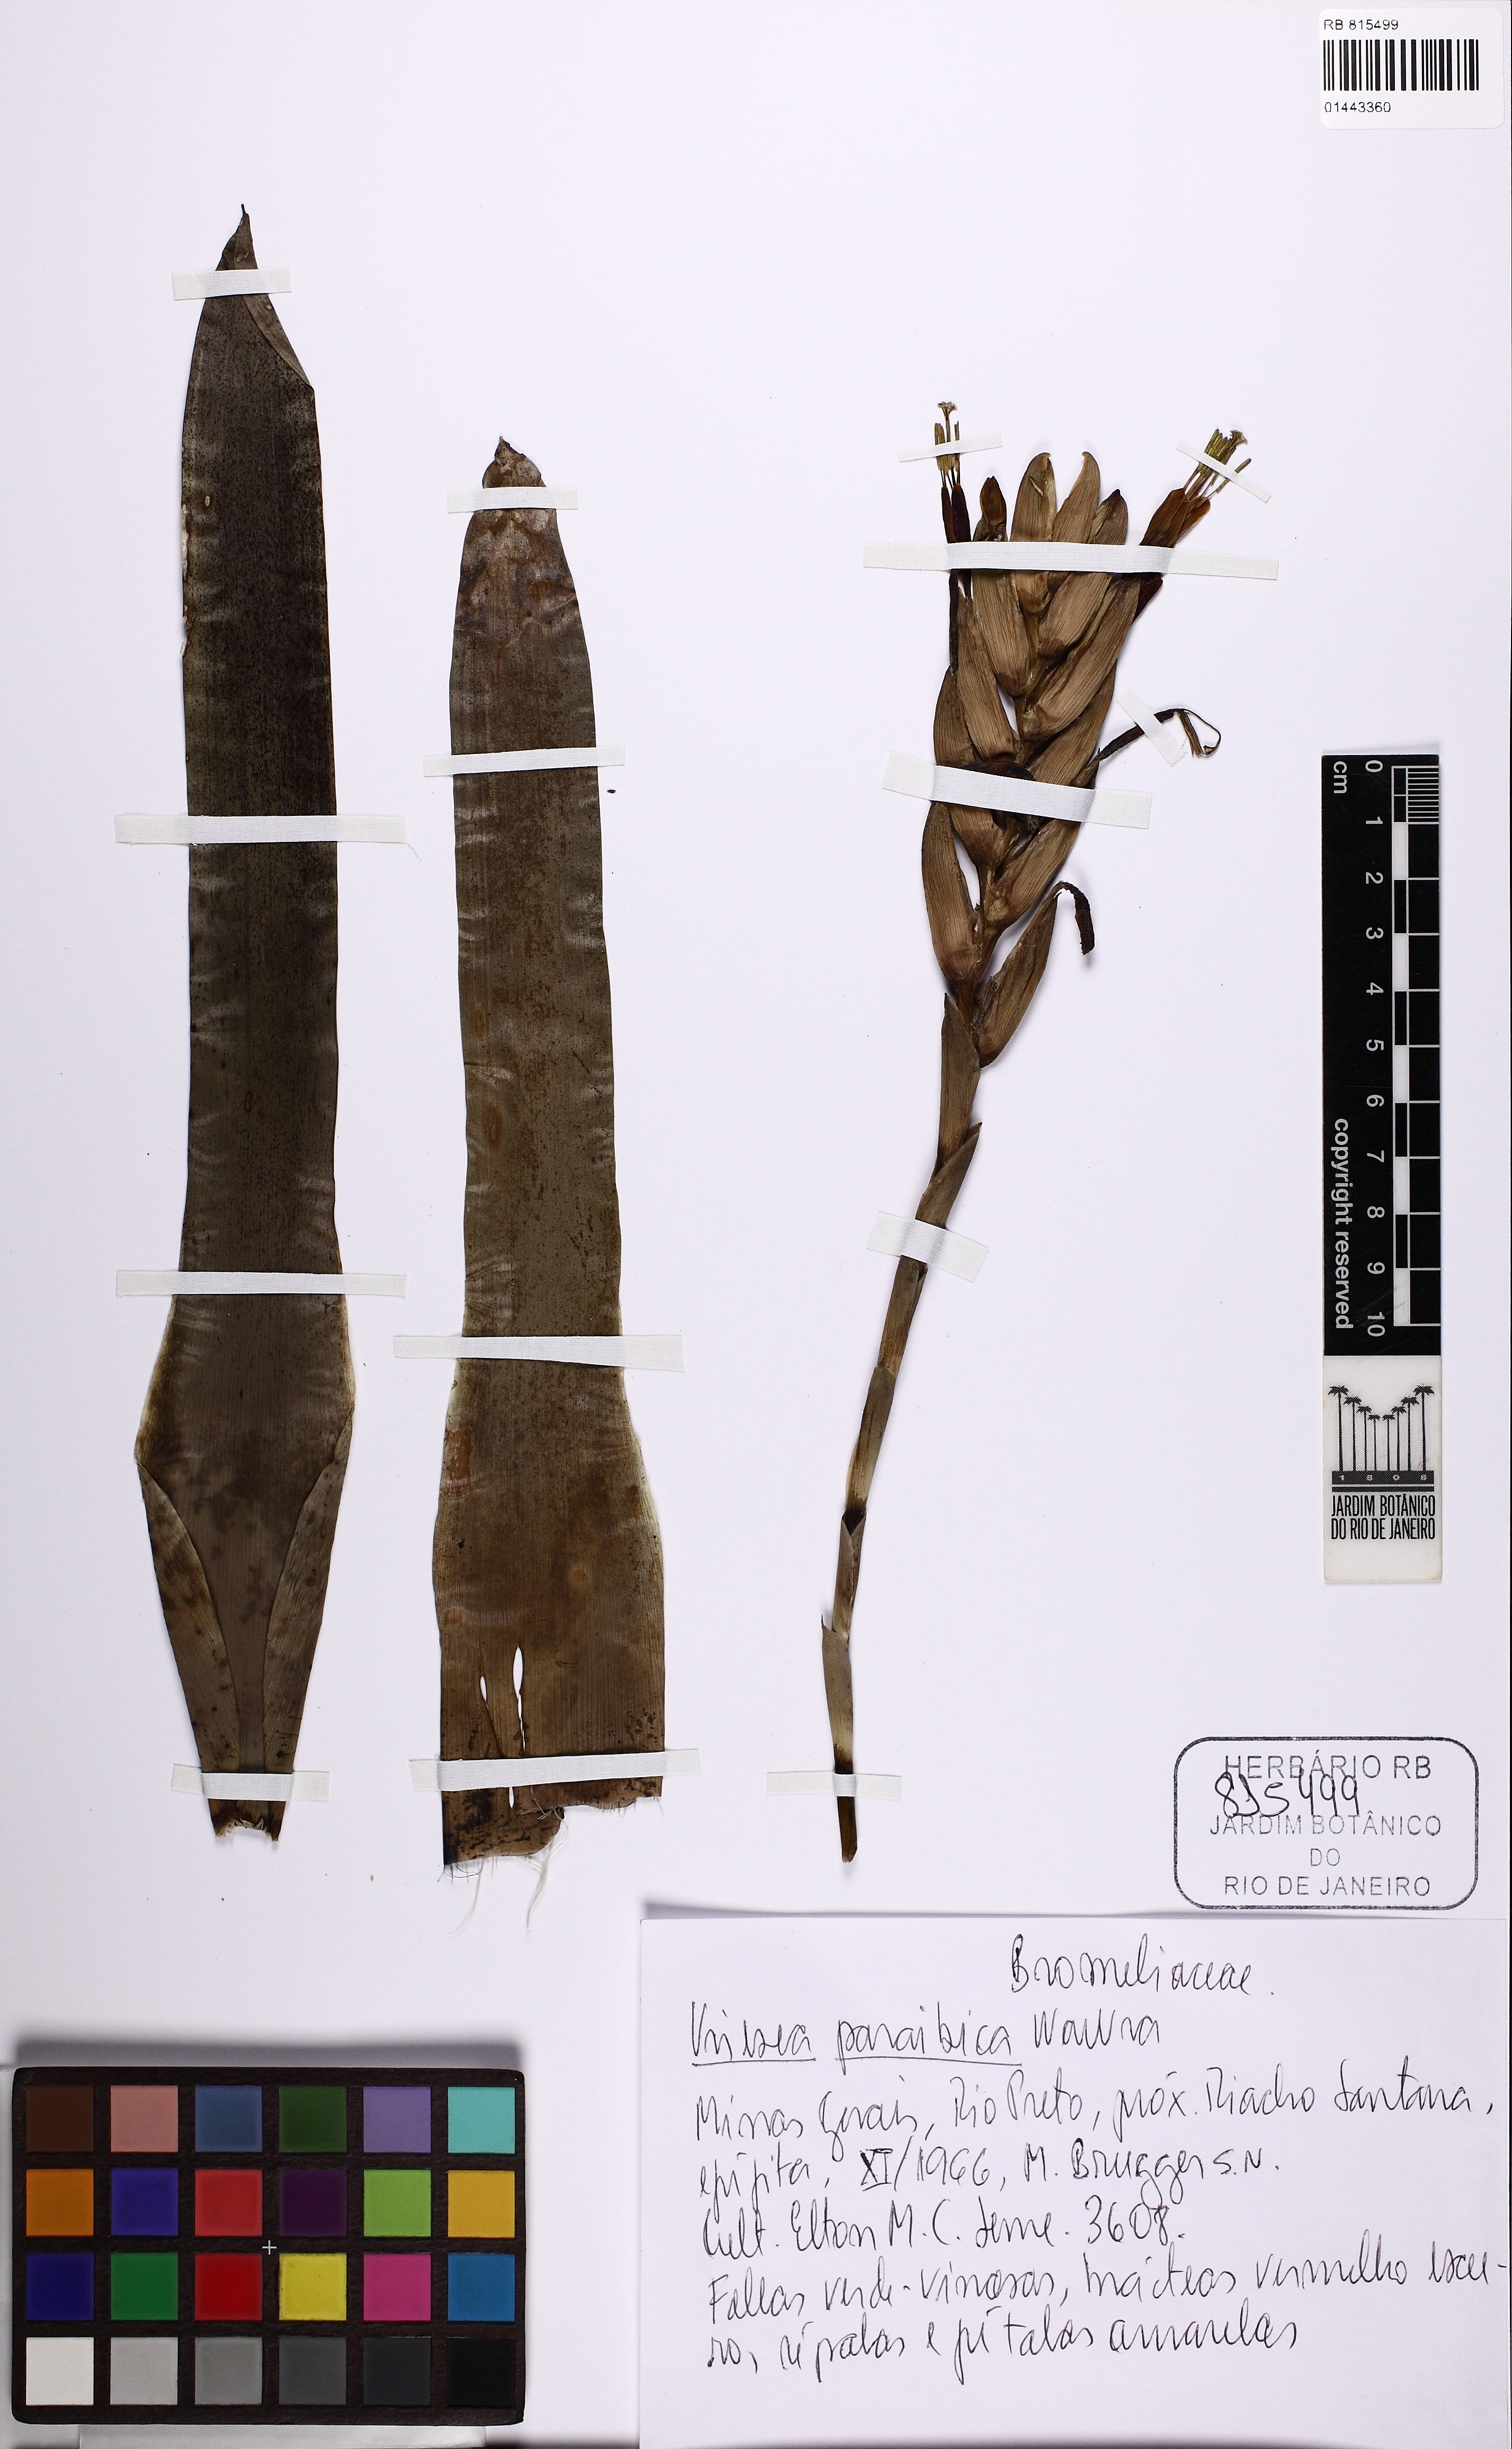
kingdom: Plantae
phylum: Tracheophyta
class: Liliopsida
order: Poales
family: Bromeliaceae
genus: Vriesea
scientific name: Vriesea paraibica
